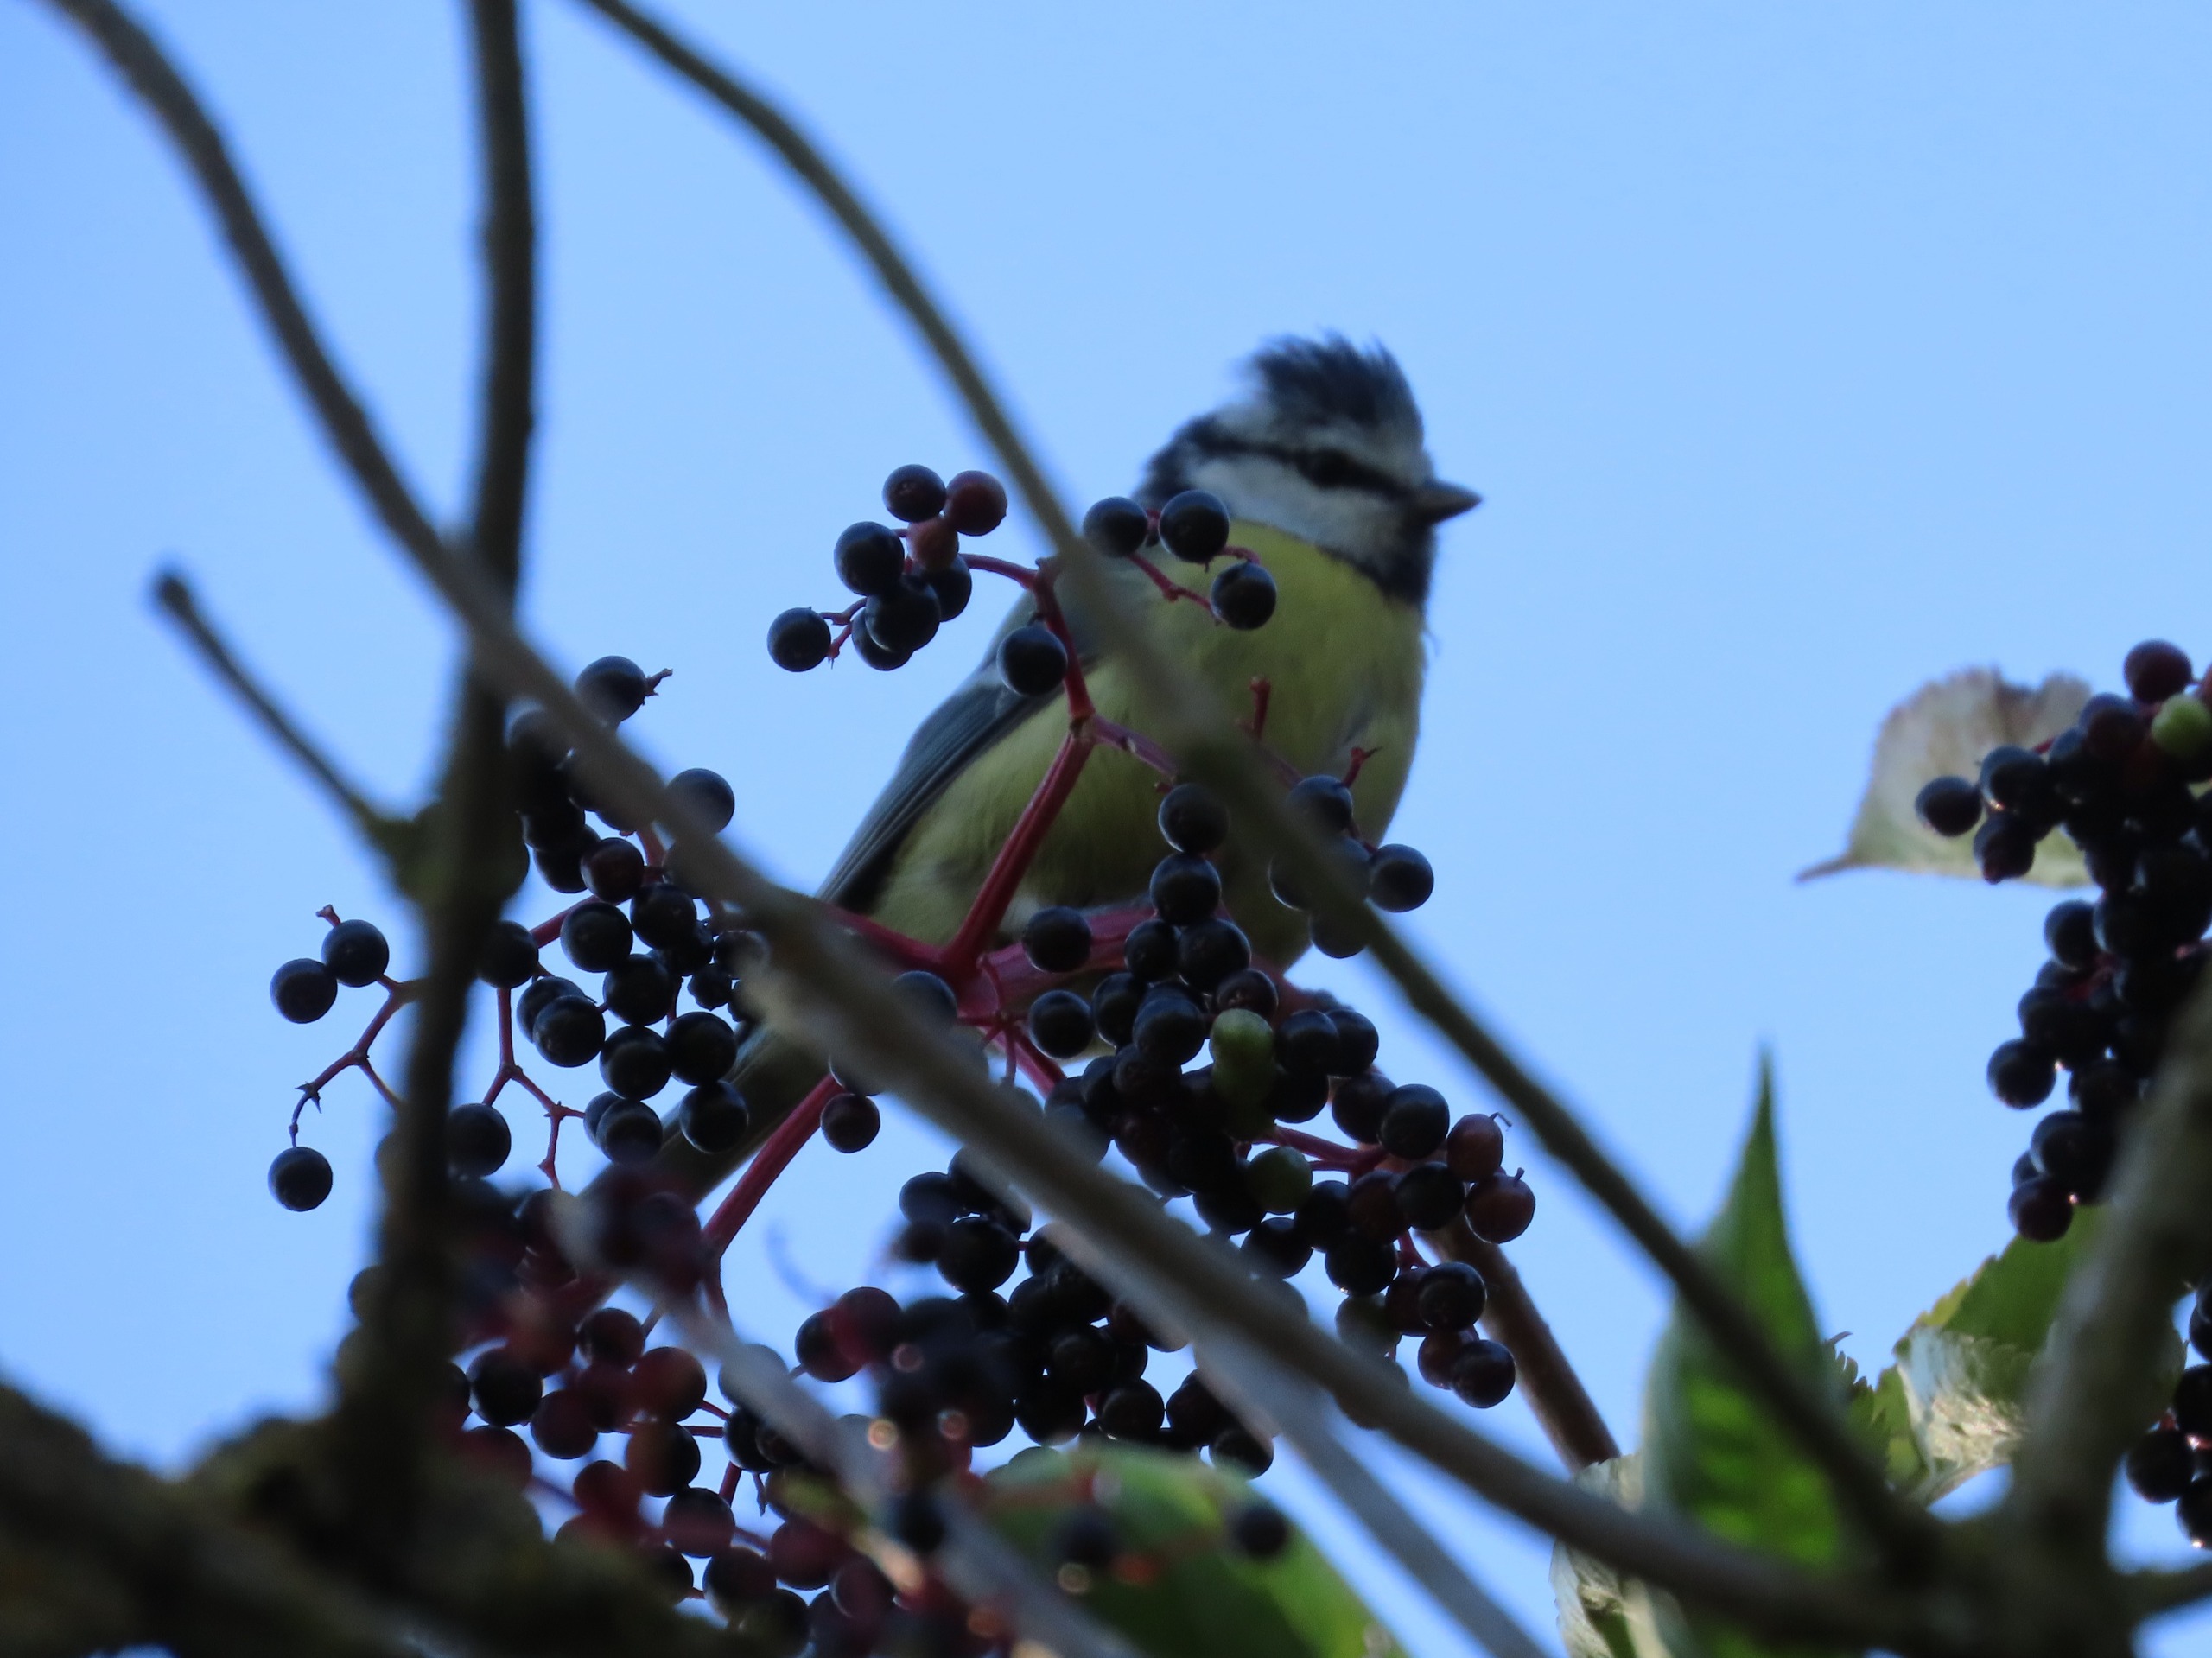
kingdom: Animalia
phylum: Chordata
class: Aves
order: Passeriformes
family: Paridae
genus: Cyanistes
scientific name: Cyanistes caeruleus
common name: Blåmejse
